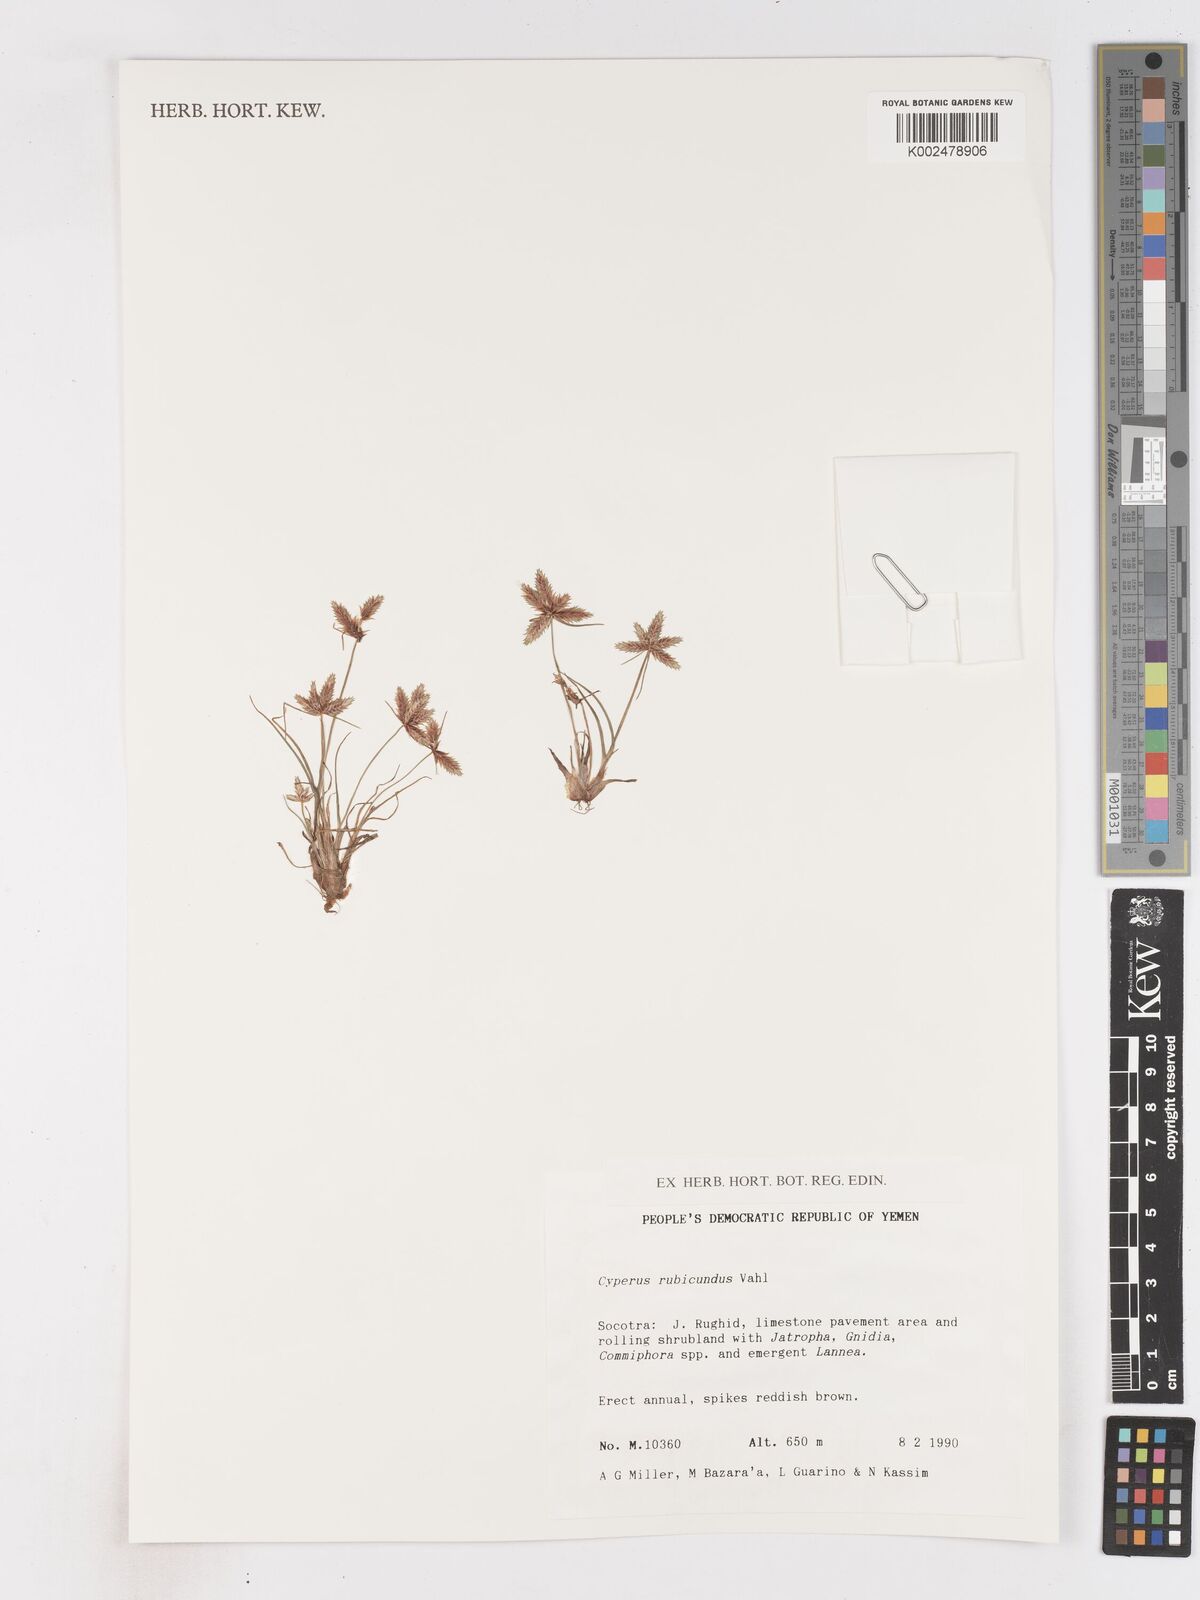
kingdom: Plantae
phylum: Tracheophyta
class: Liliopsida
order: Poales
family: Cyperaceae
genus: Cyperus
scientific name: Cyperus rubicundus
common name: Coco-grass
